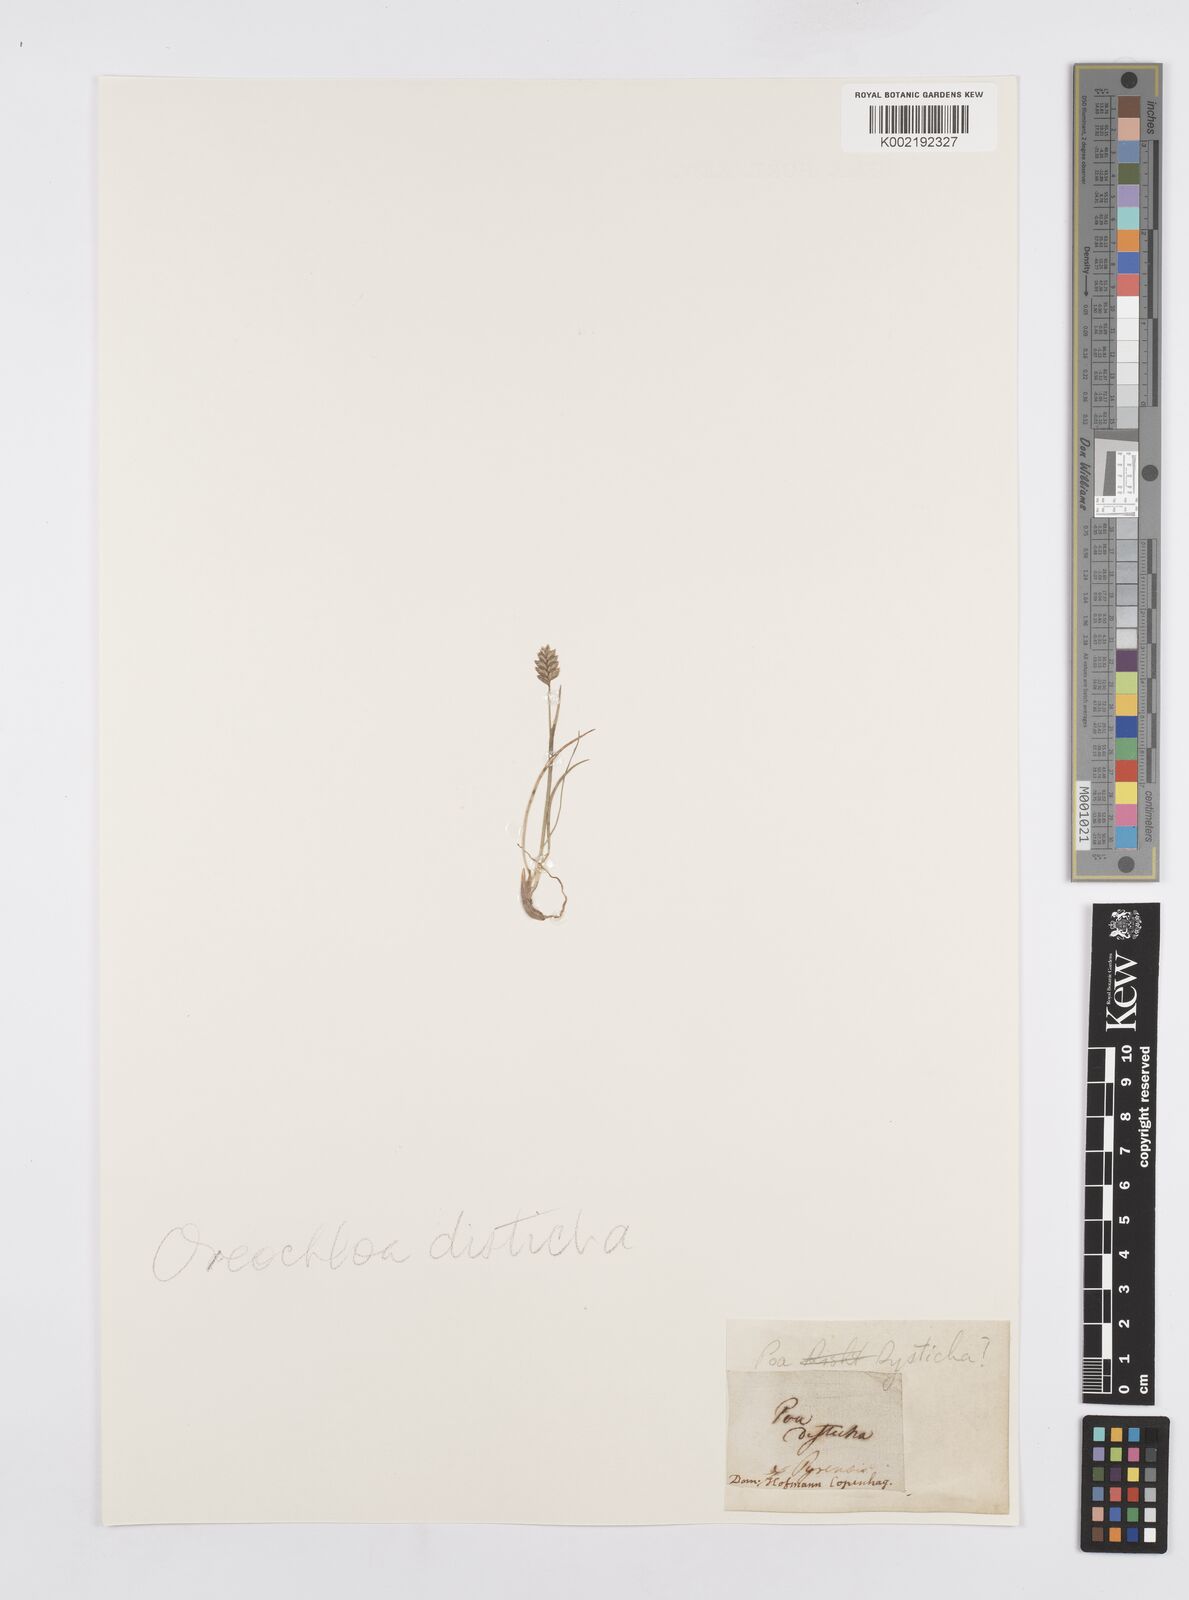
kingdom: Plantae
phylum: Tracheophyta
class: Liliopsida
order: Poales
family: Poaceae
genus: Oreochloa
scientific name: Oreochloa disticha
